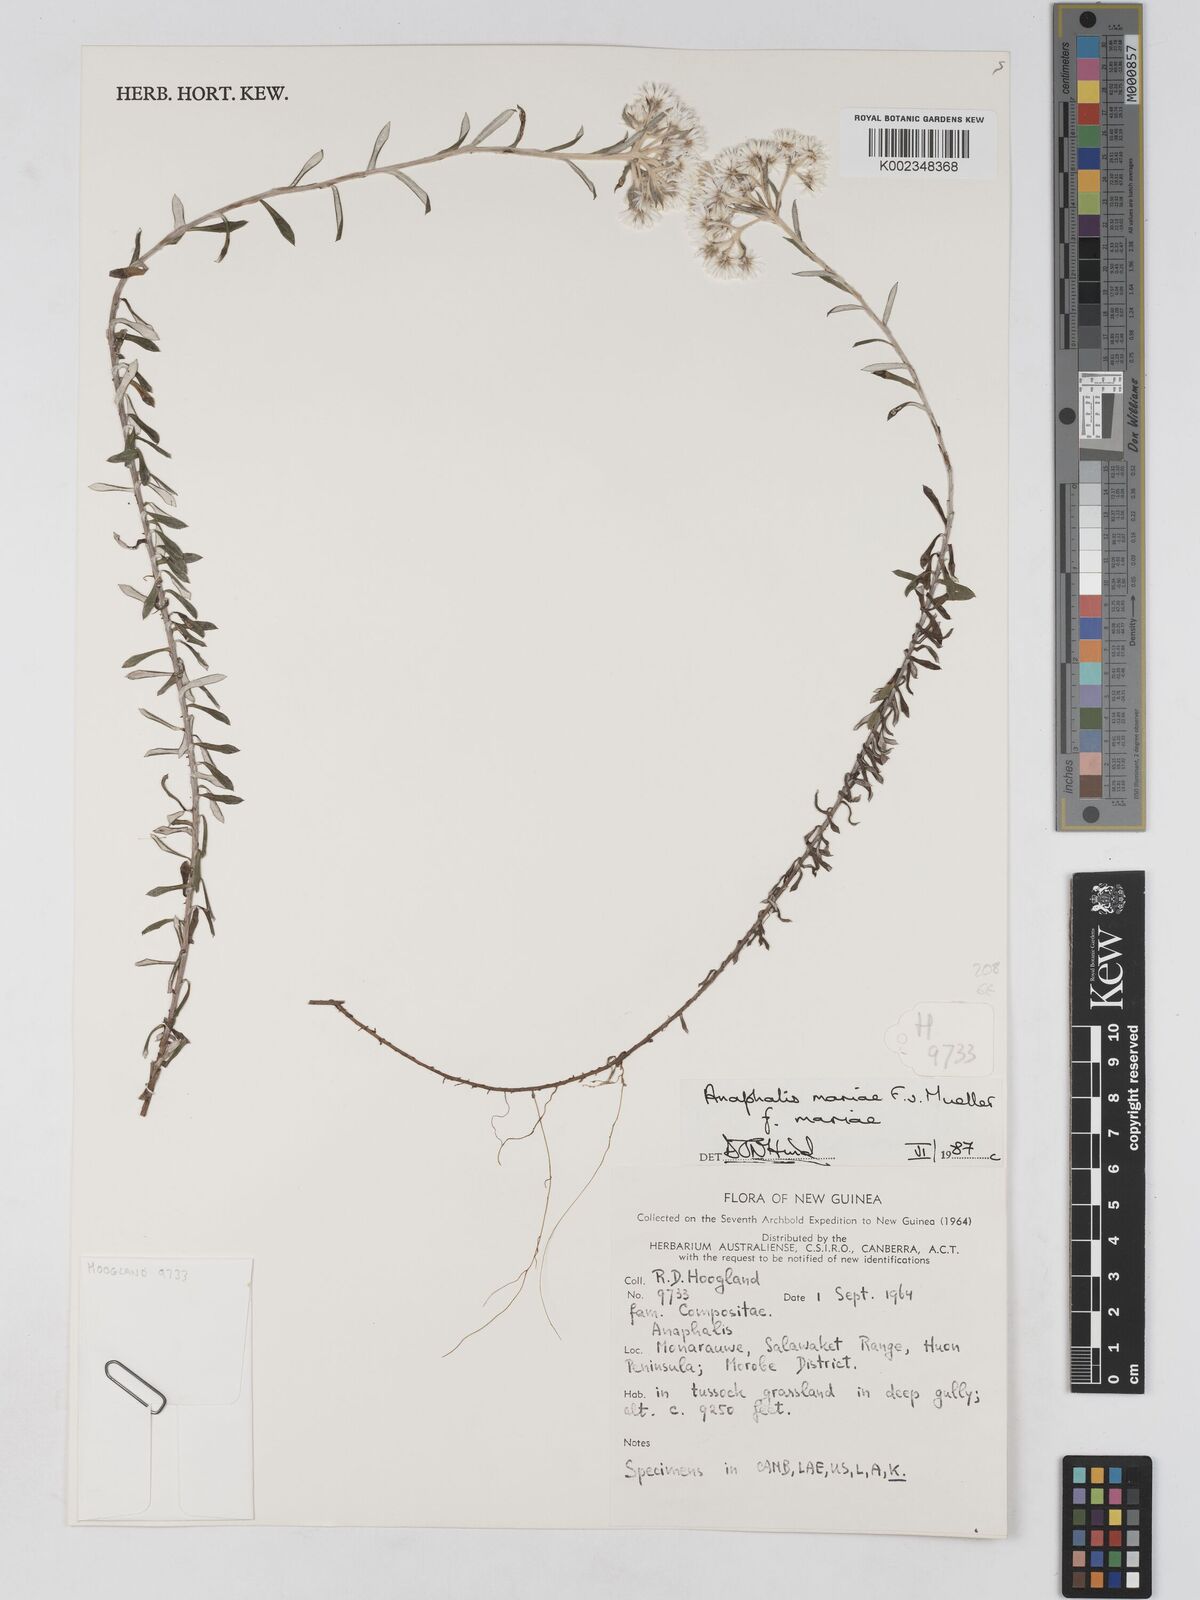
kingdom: Plantae
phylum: Tracheophyta
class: Magnoliopsida
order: Asterales
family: Asteraceae
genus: Anaphalioides
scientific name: Anaphalioides mariae
